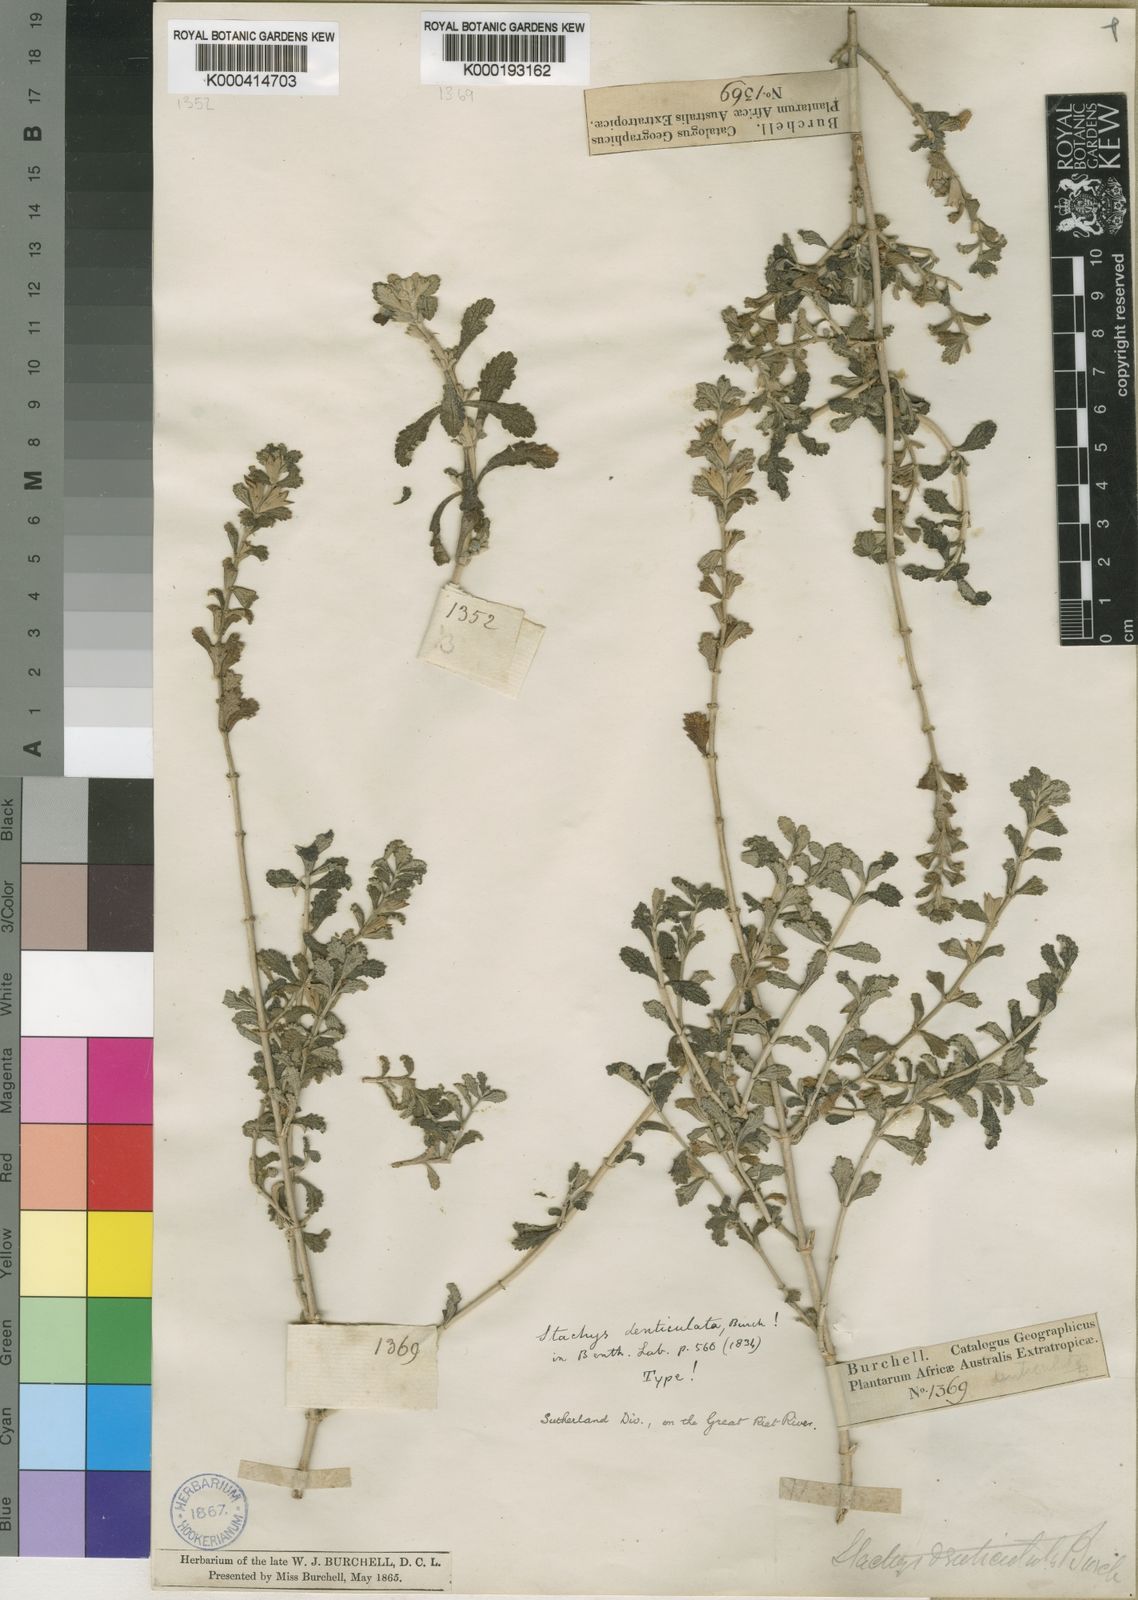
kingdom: Plantae
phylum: Tracheophyta
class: Magnoliopsida
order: Lamiales
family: Lamiaceae
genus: Stachys
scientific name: Stachys cuneata
